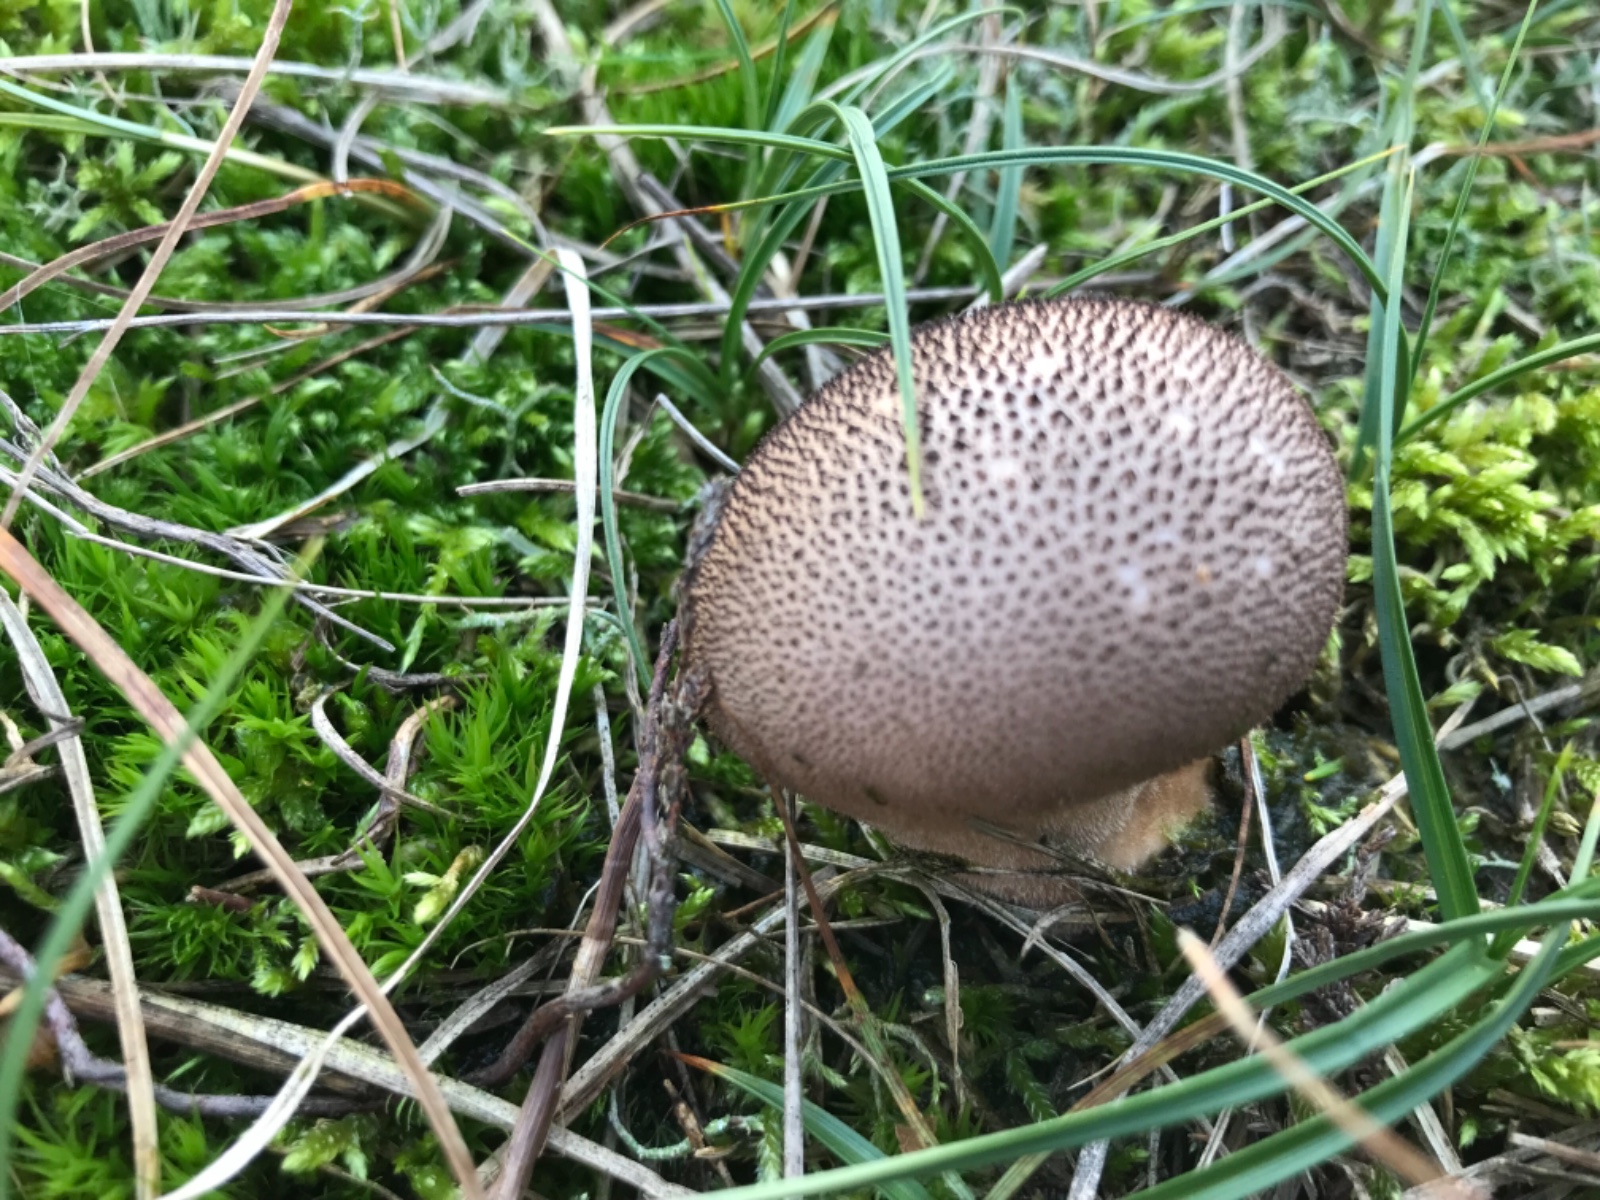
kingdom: Fungi
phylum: Basidiomycota
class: Agaricomycetes
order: Agaricales
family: Lycoperdaceae
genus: Lycoperdon
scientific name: Lycoperdon nigrescens
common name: sortagtig støvbold
